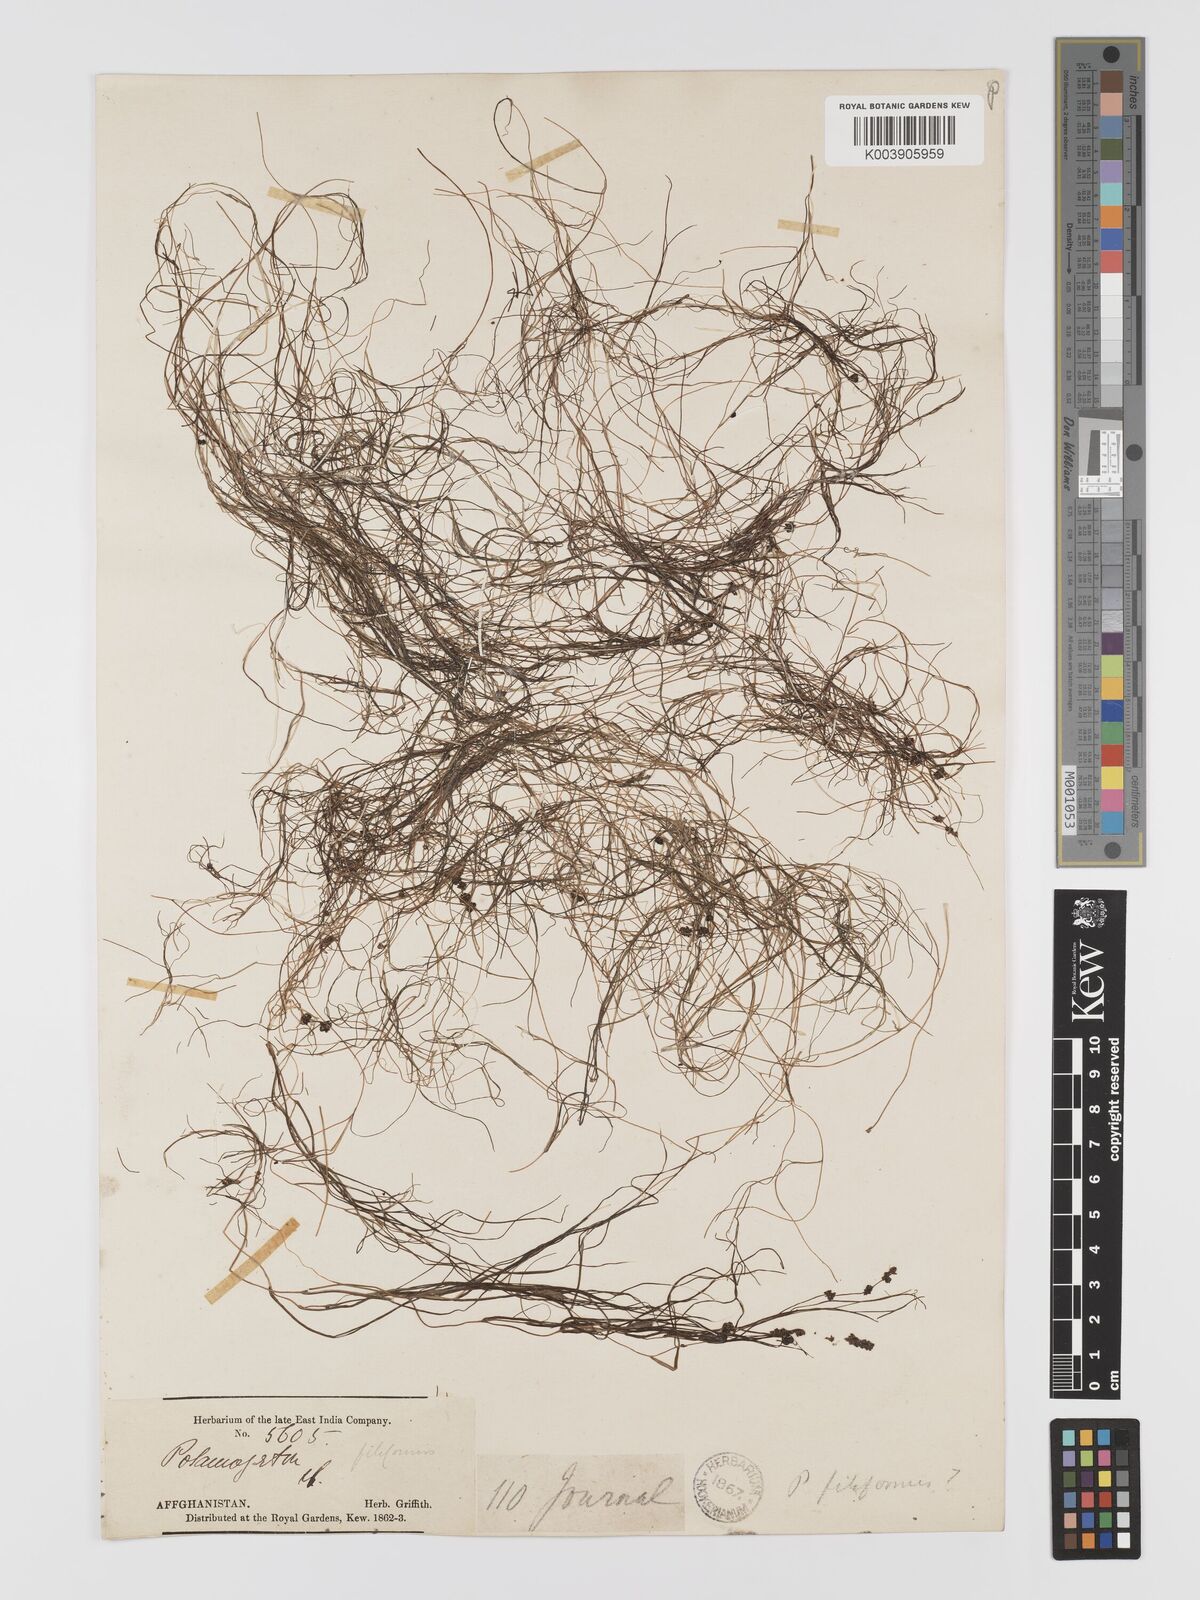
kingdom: Plantae
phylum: Tracheophyta
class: Liliopsida
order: Alismatales
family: Potamogetonaceae
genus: Potamogeton
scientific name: Potamogeton filiformis
